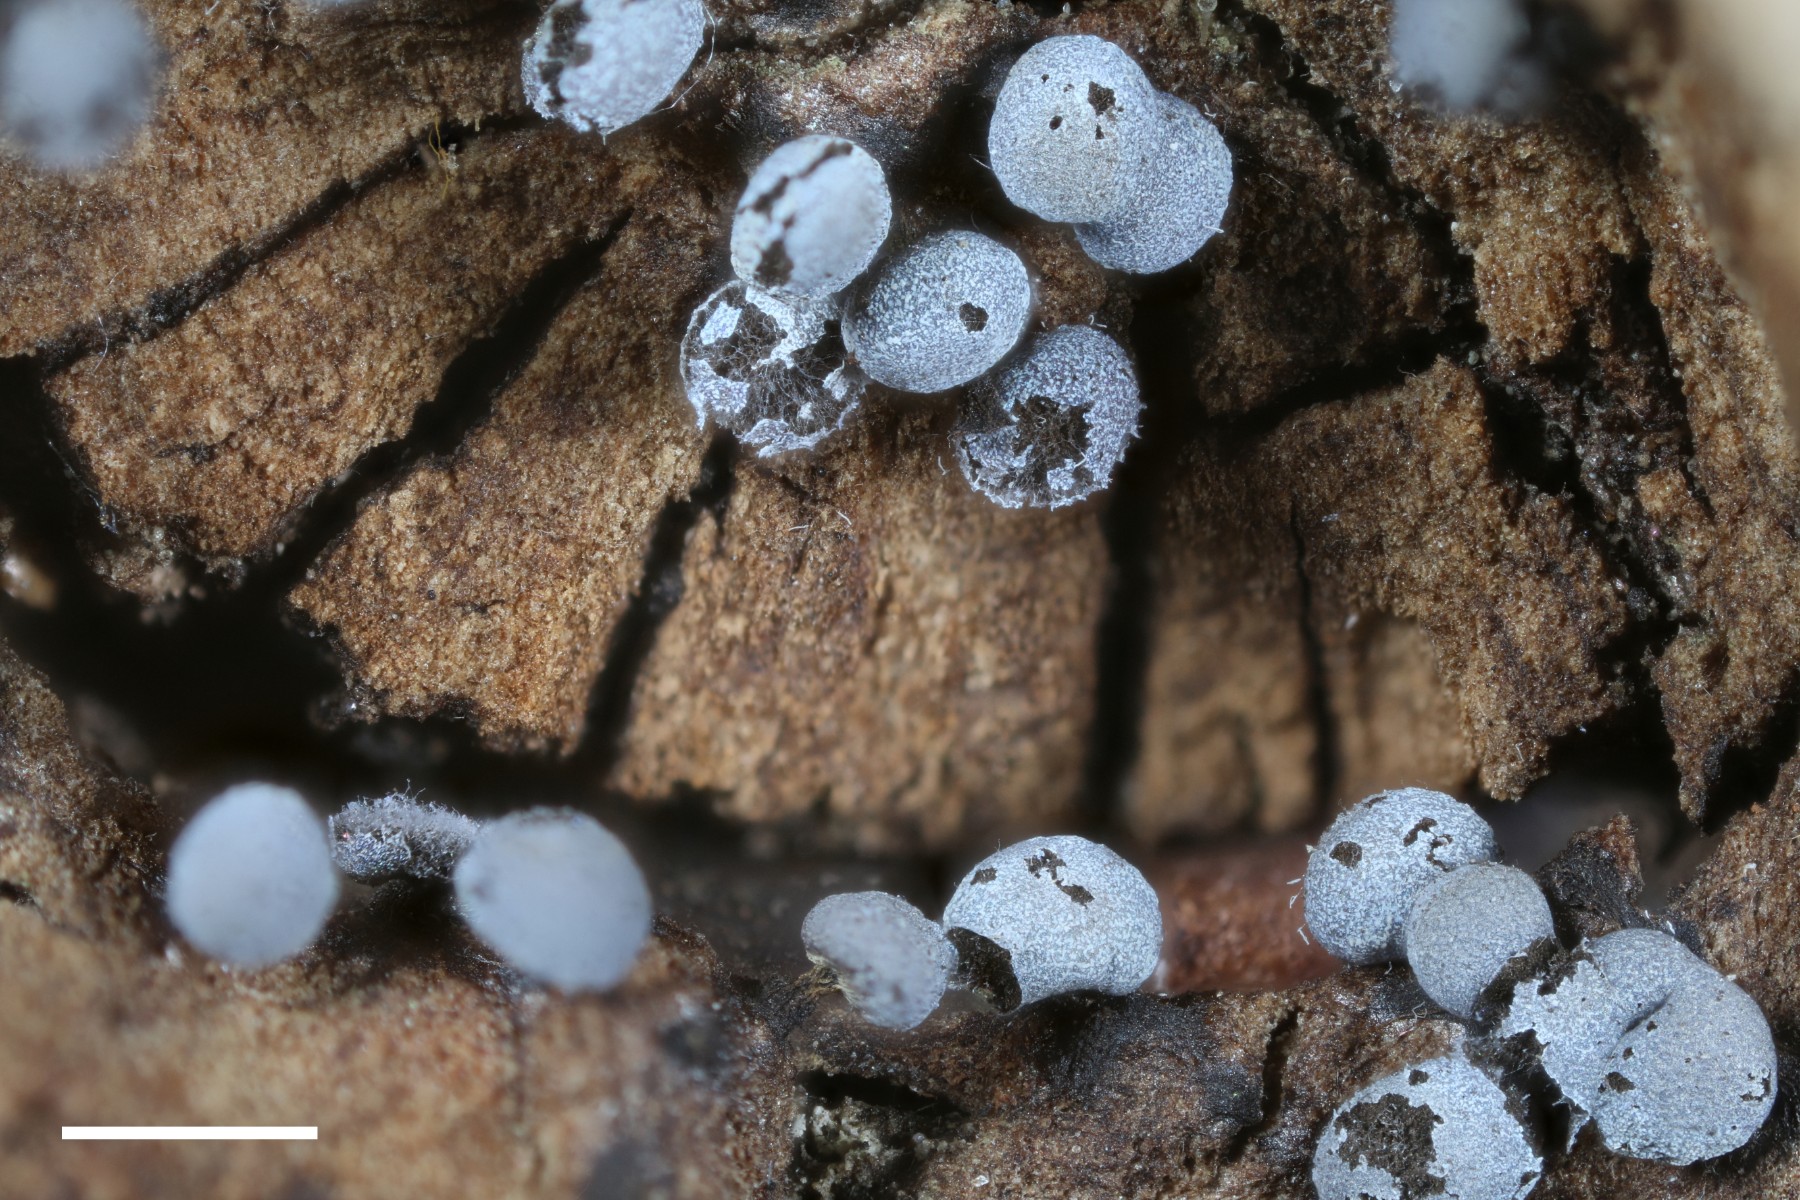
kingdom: Protozoa
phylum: Mycetozoa
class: Myxomycetes
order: Physarales
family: Physaraceae
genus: Physarum
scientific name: Physarum leucophaeum
